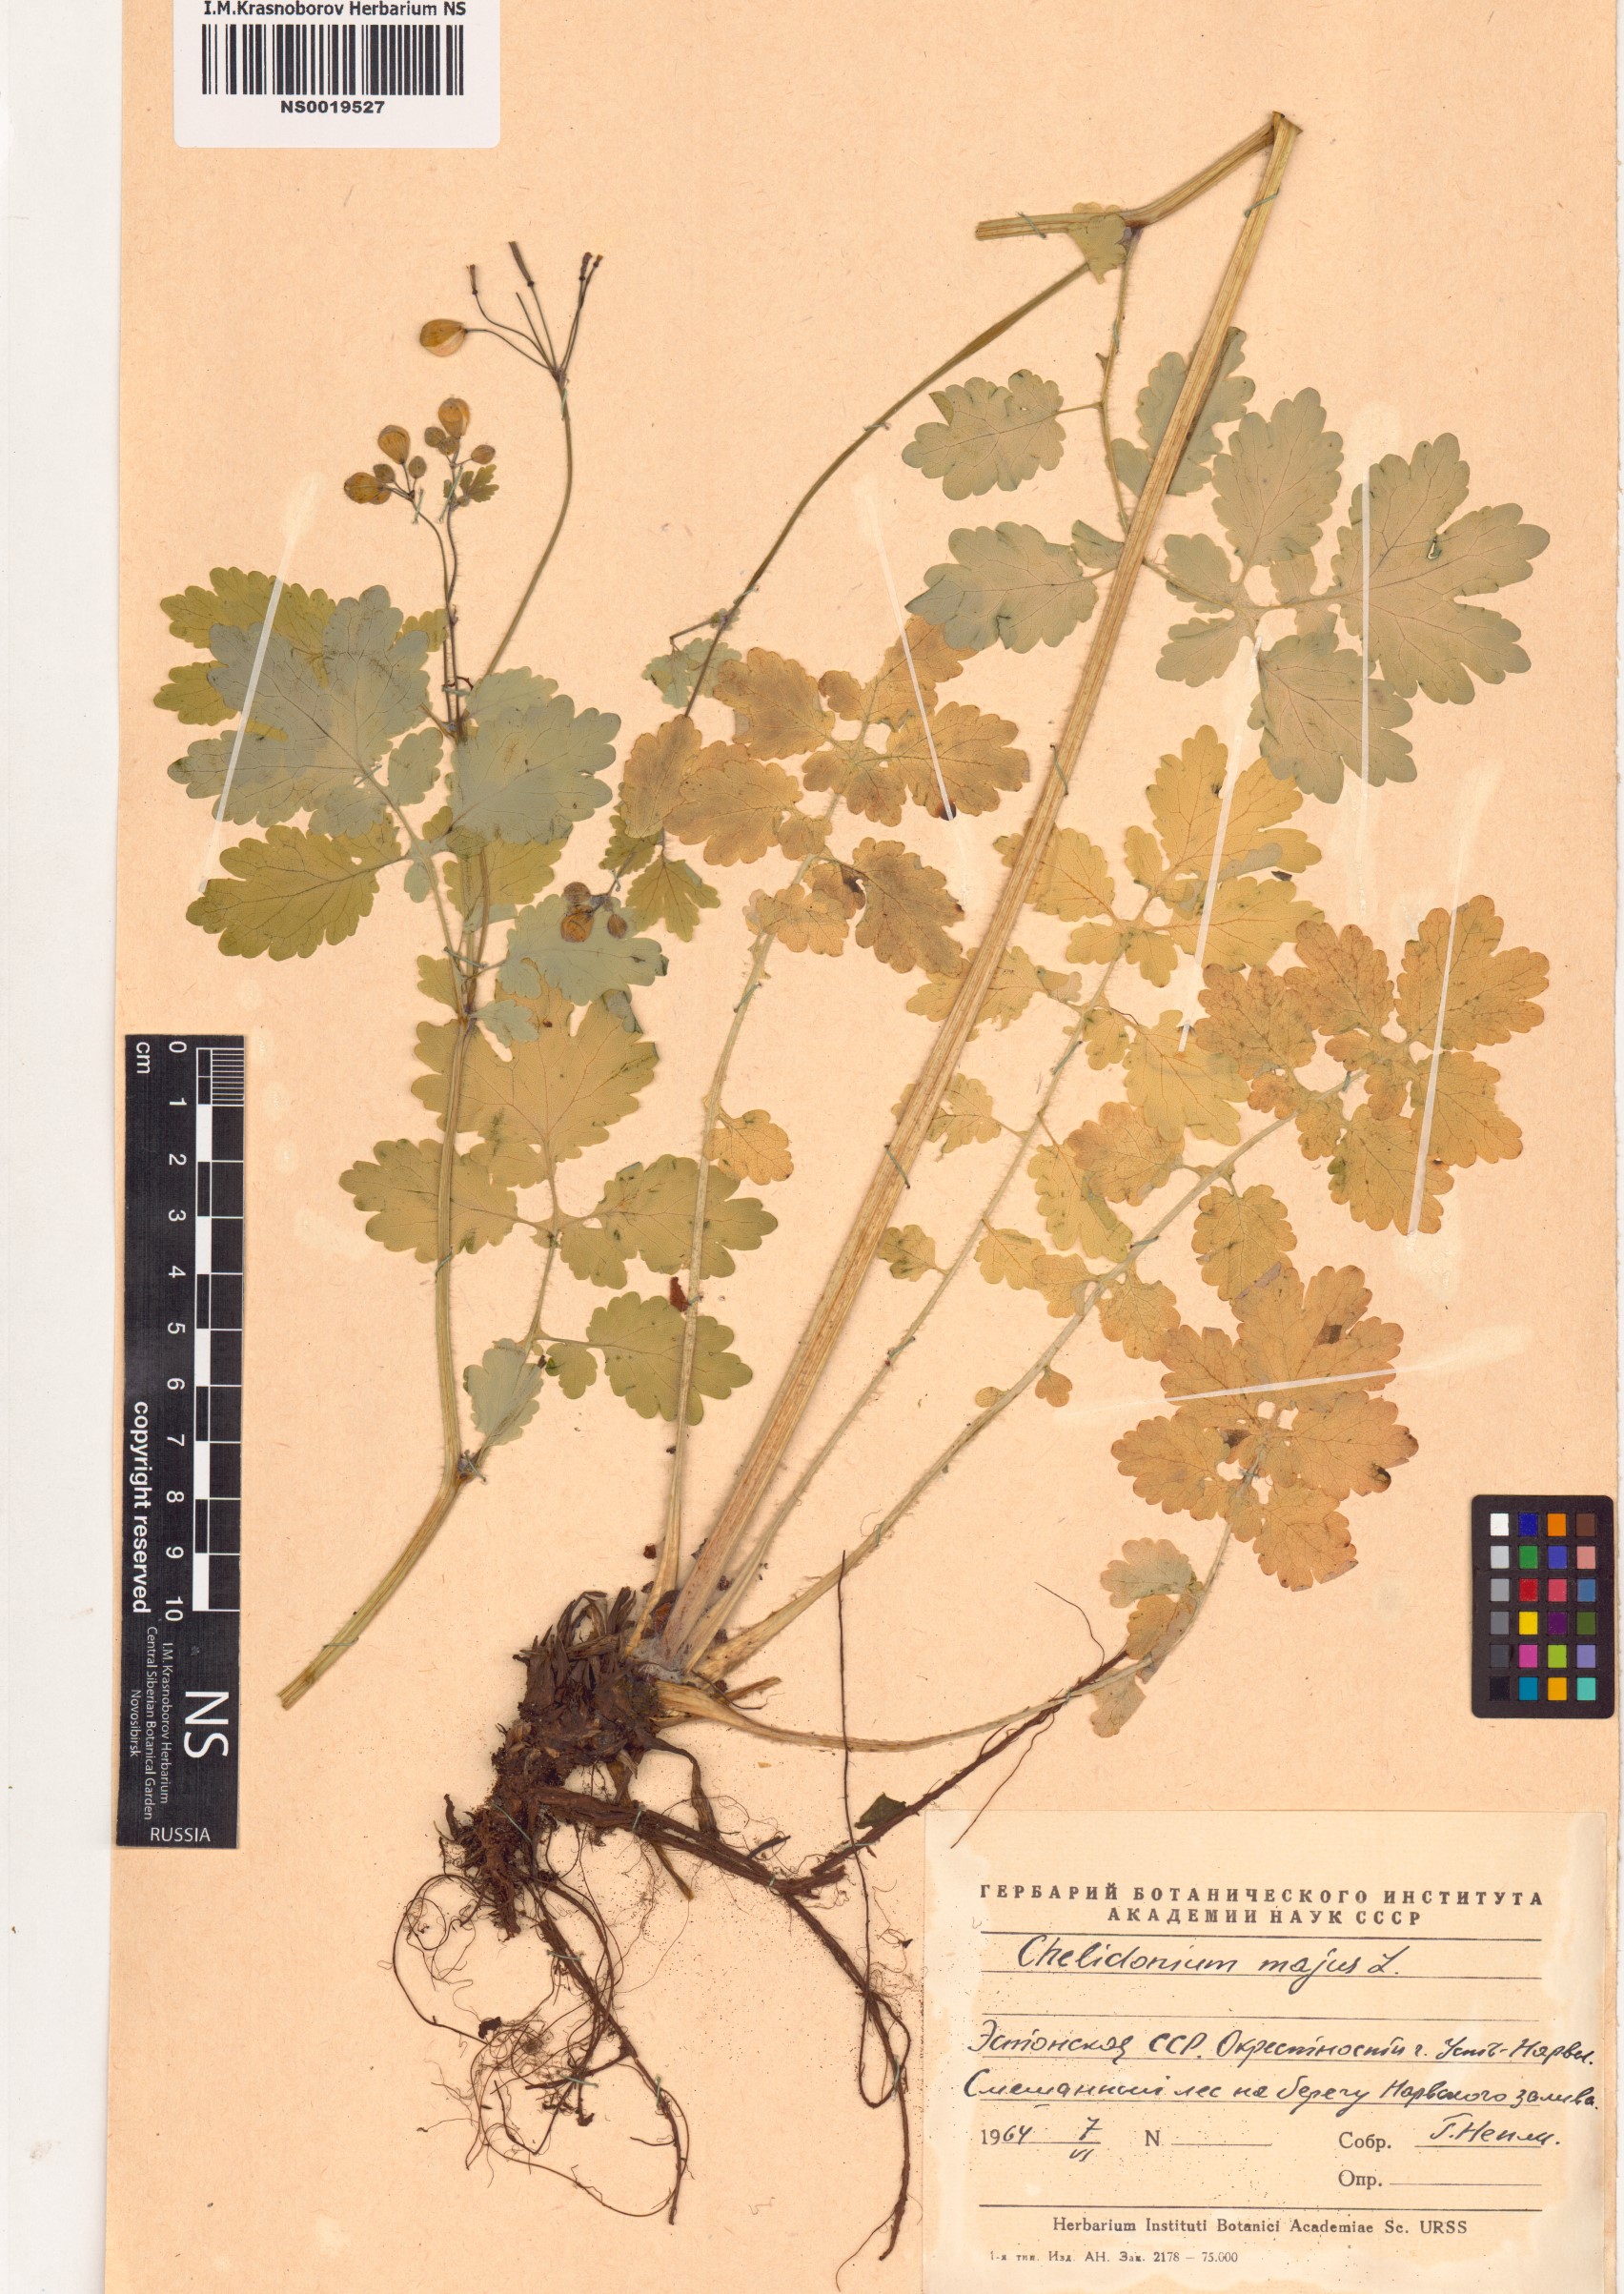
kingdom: Plantae
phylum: Tracheophyta
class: Magnoliopsida
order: Ranunculales
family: Papaveraceae
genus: Chelidonium
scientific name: Chelidonium majus
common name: Greater celandine
